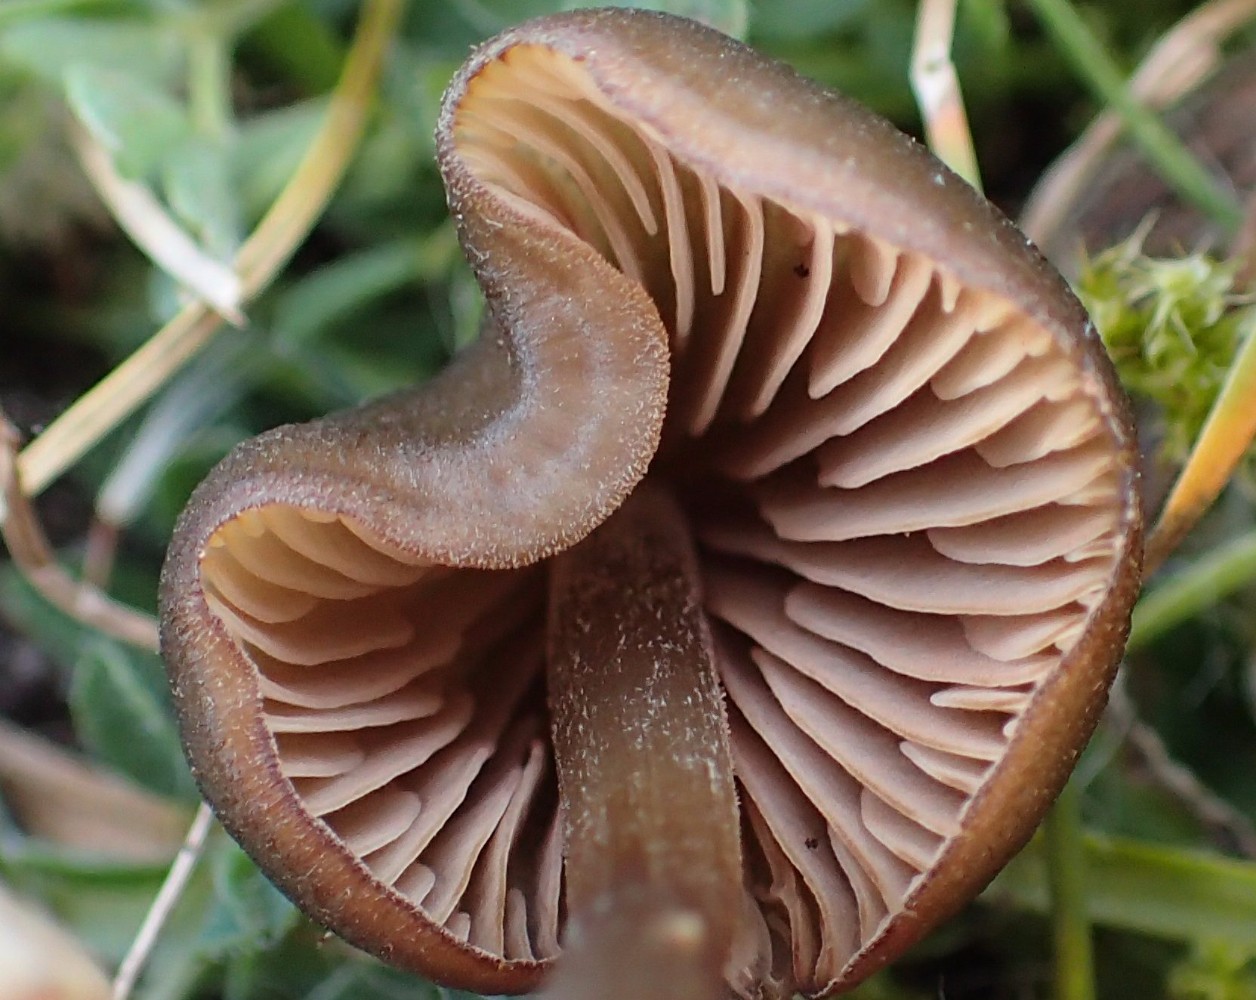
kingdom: Fungi
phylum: Basidiomycota
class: Agaricomycetes
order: Agaricales
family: Entolomataceae
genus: Entoloma
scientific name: Entoloma
